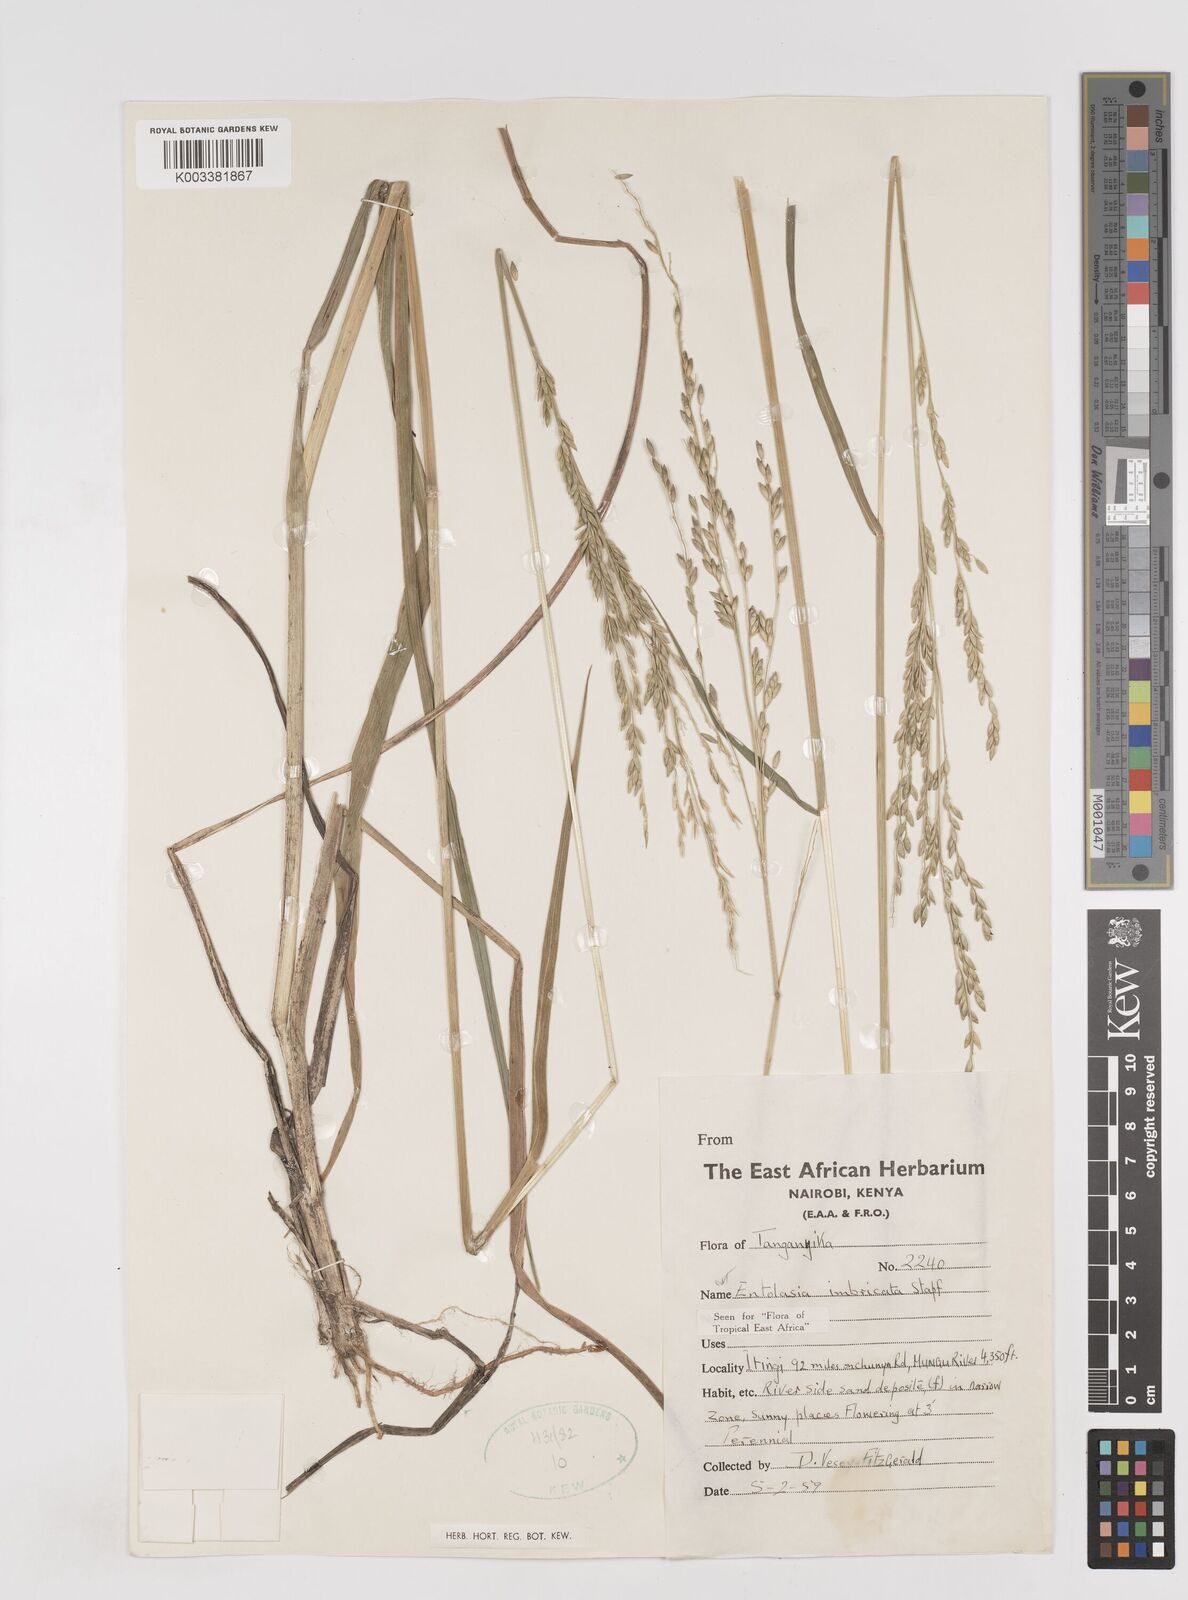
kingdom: Plantae
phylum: Tracheophyta
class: Liliopsida
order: Poales
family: Poaceae
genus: Entolasia
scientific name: Entolasia imbricata
